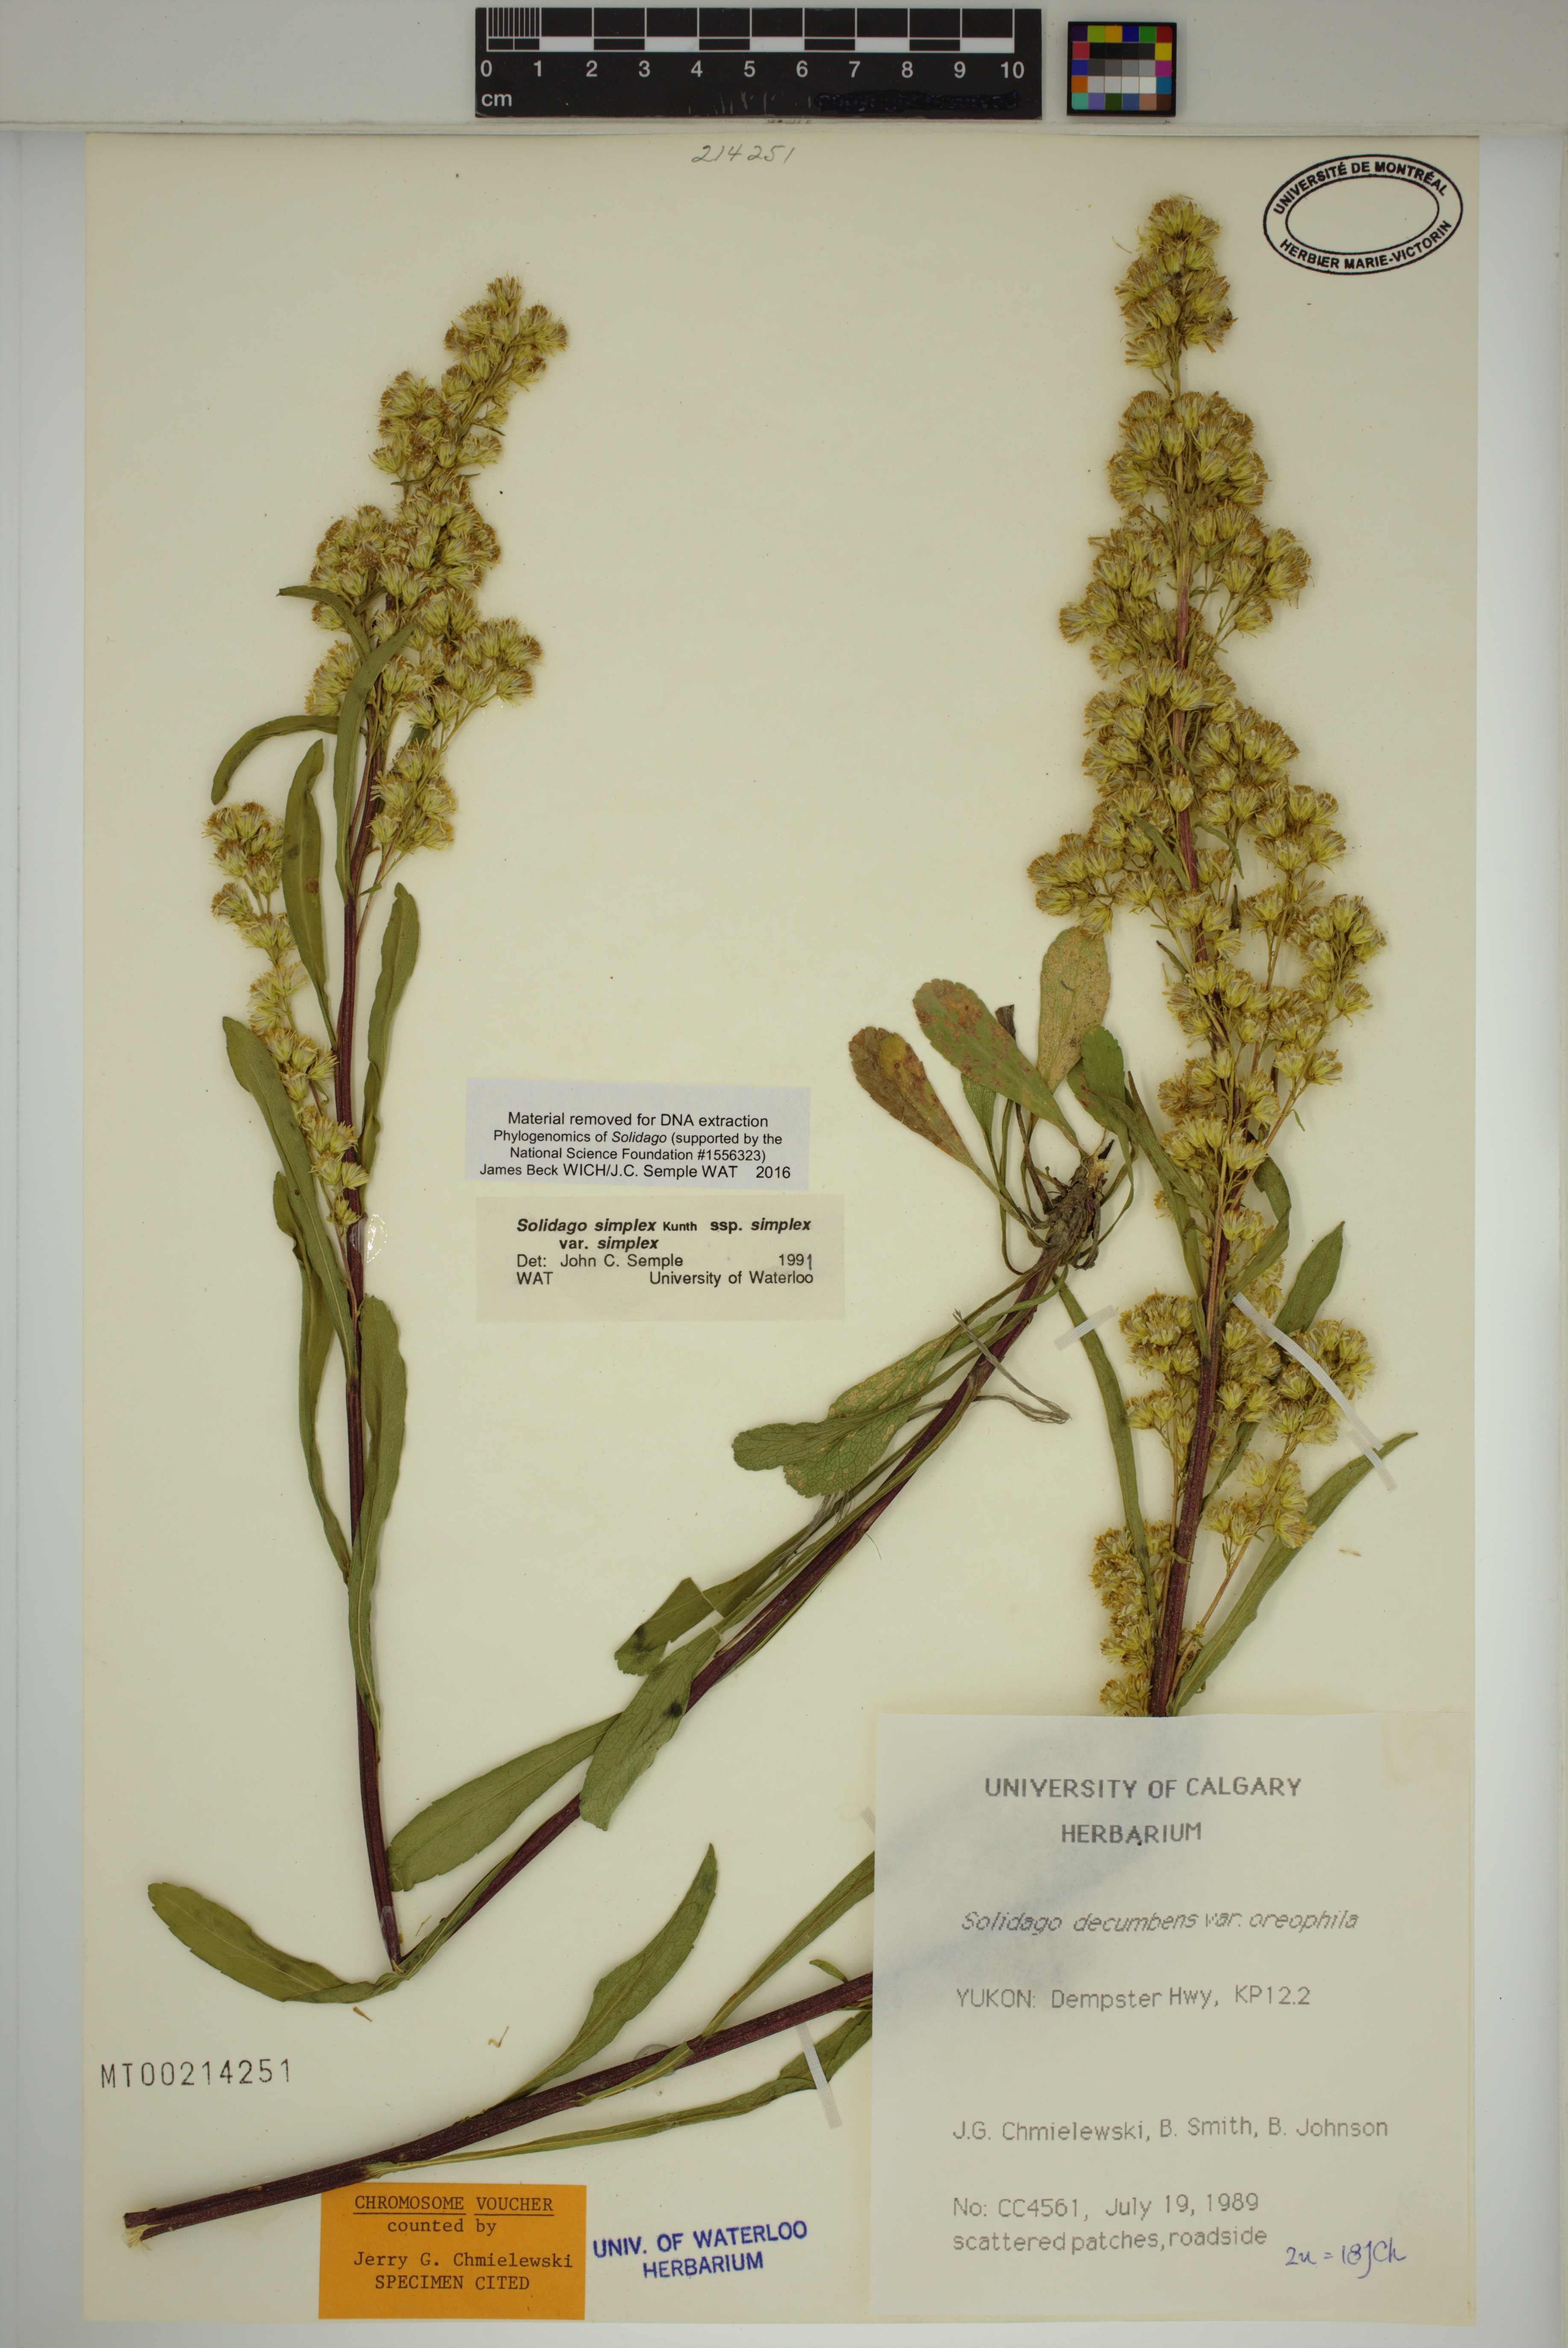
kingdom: Plantae
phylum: Tracheophyta
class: Magnoliopsida
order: Asterales
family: Asteraceae
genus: Solidago
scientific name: Solidago glutinosa
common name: Decumbent goldenrod
